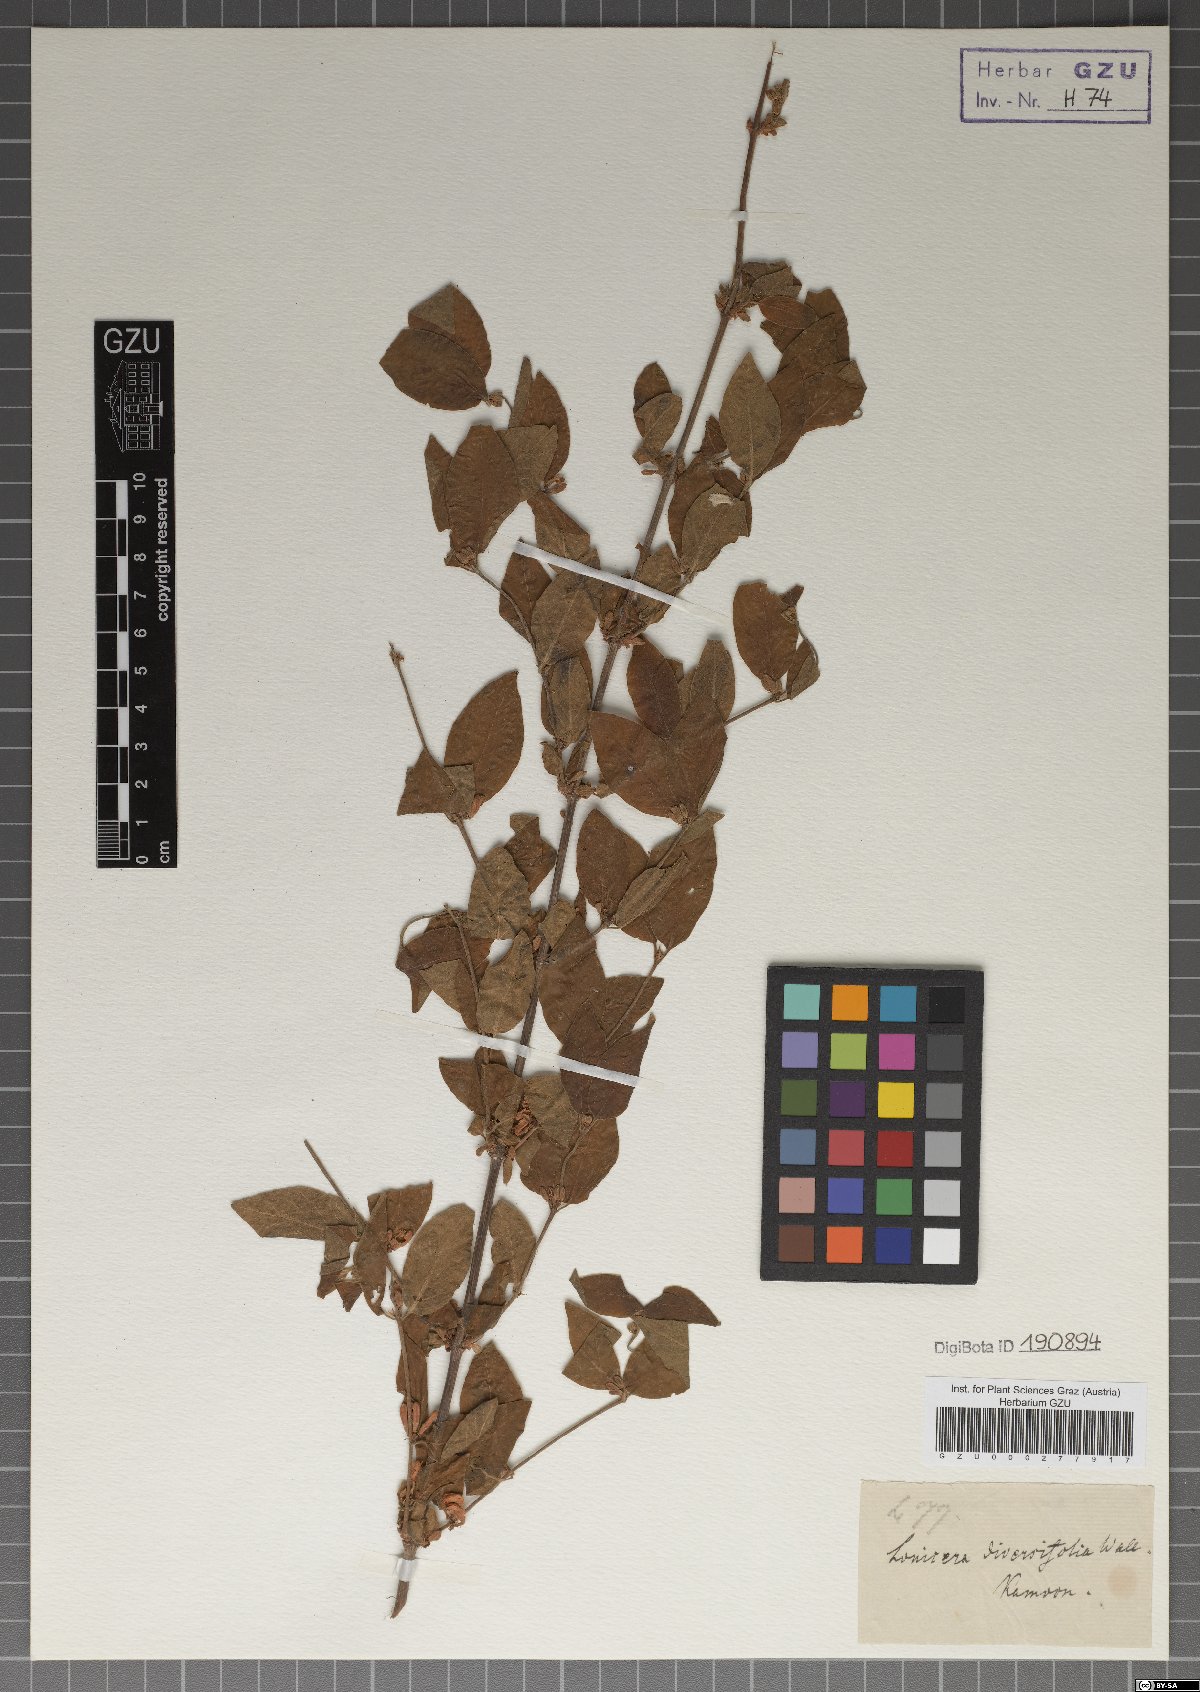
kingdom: Plantae
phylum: Tracheophyta
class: Magnoliopsida
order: Dipsacales
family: Caprifoliaceae
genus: Lonicera
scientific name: Lonicera quinquelocularis
